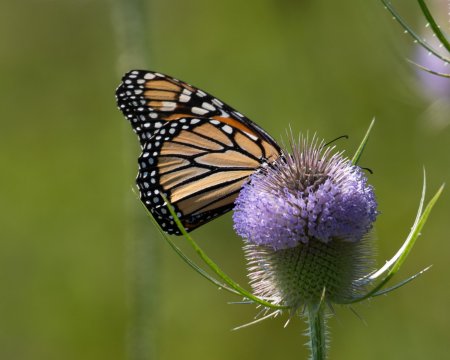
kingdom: Animalia
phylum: Arthropoda
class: Insecta
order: Lepidoptera
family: Nymphalidae
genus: Danaus
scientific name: Danaus plexippus
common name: Monarch
